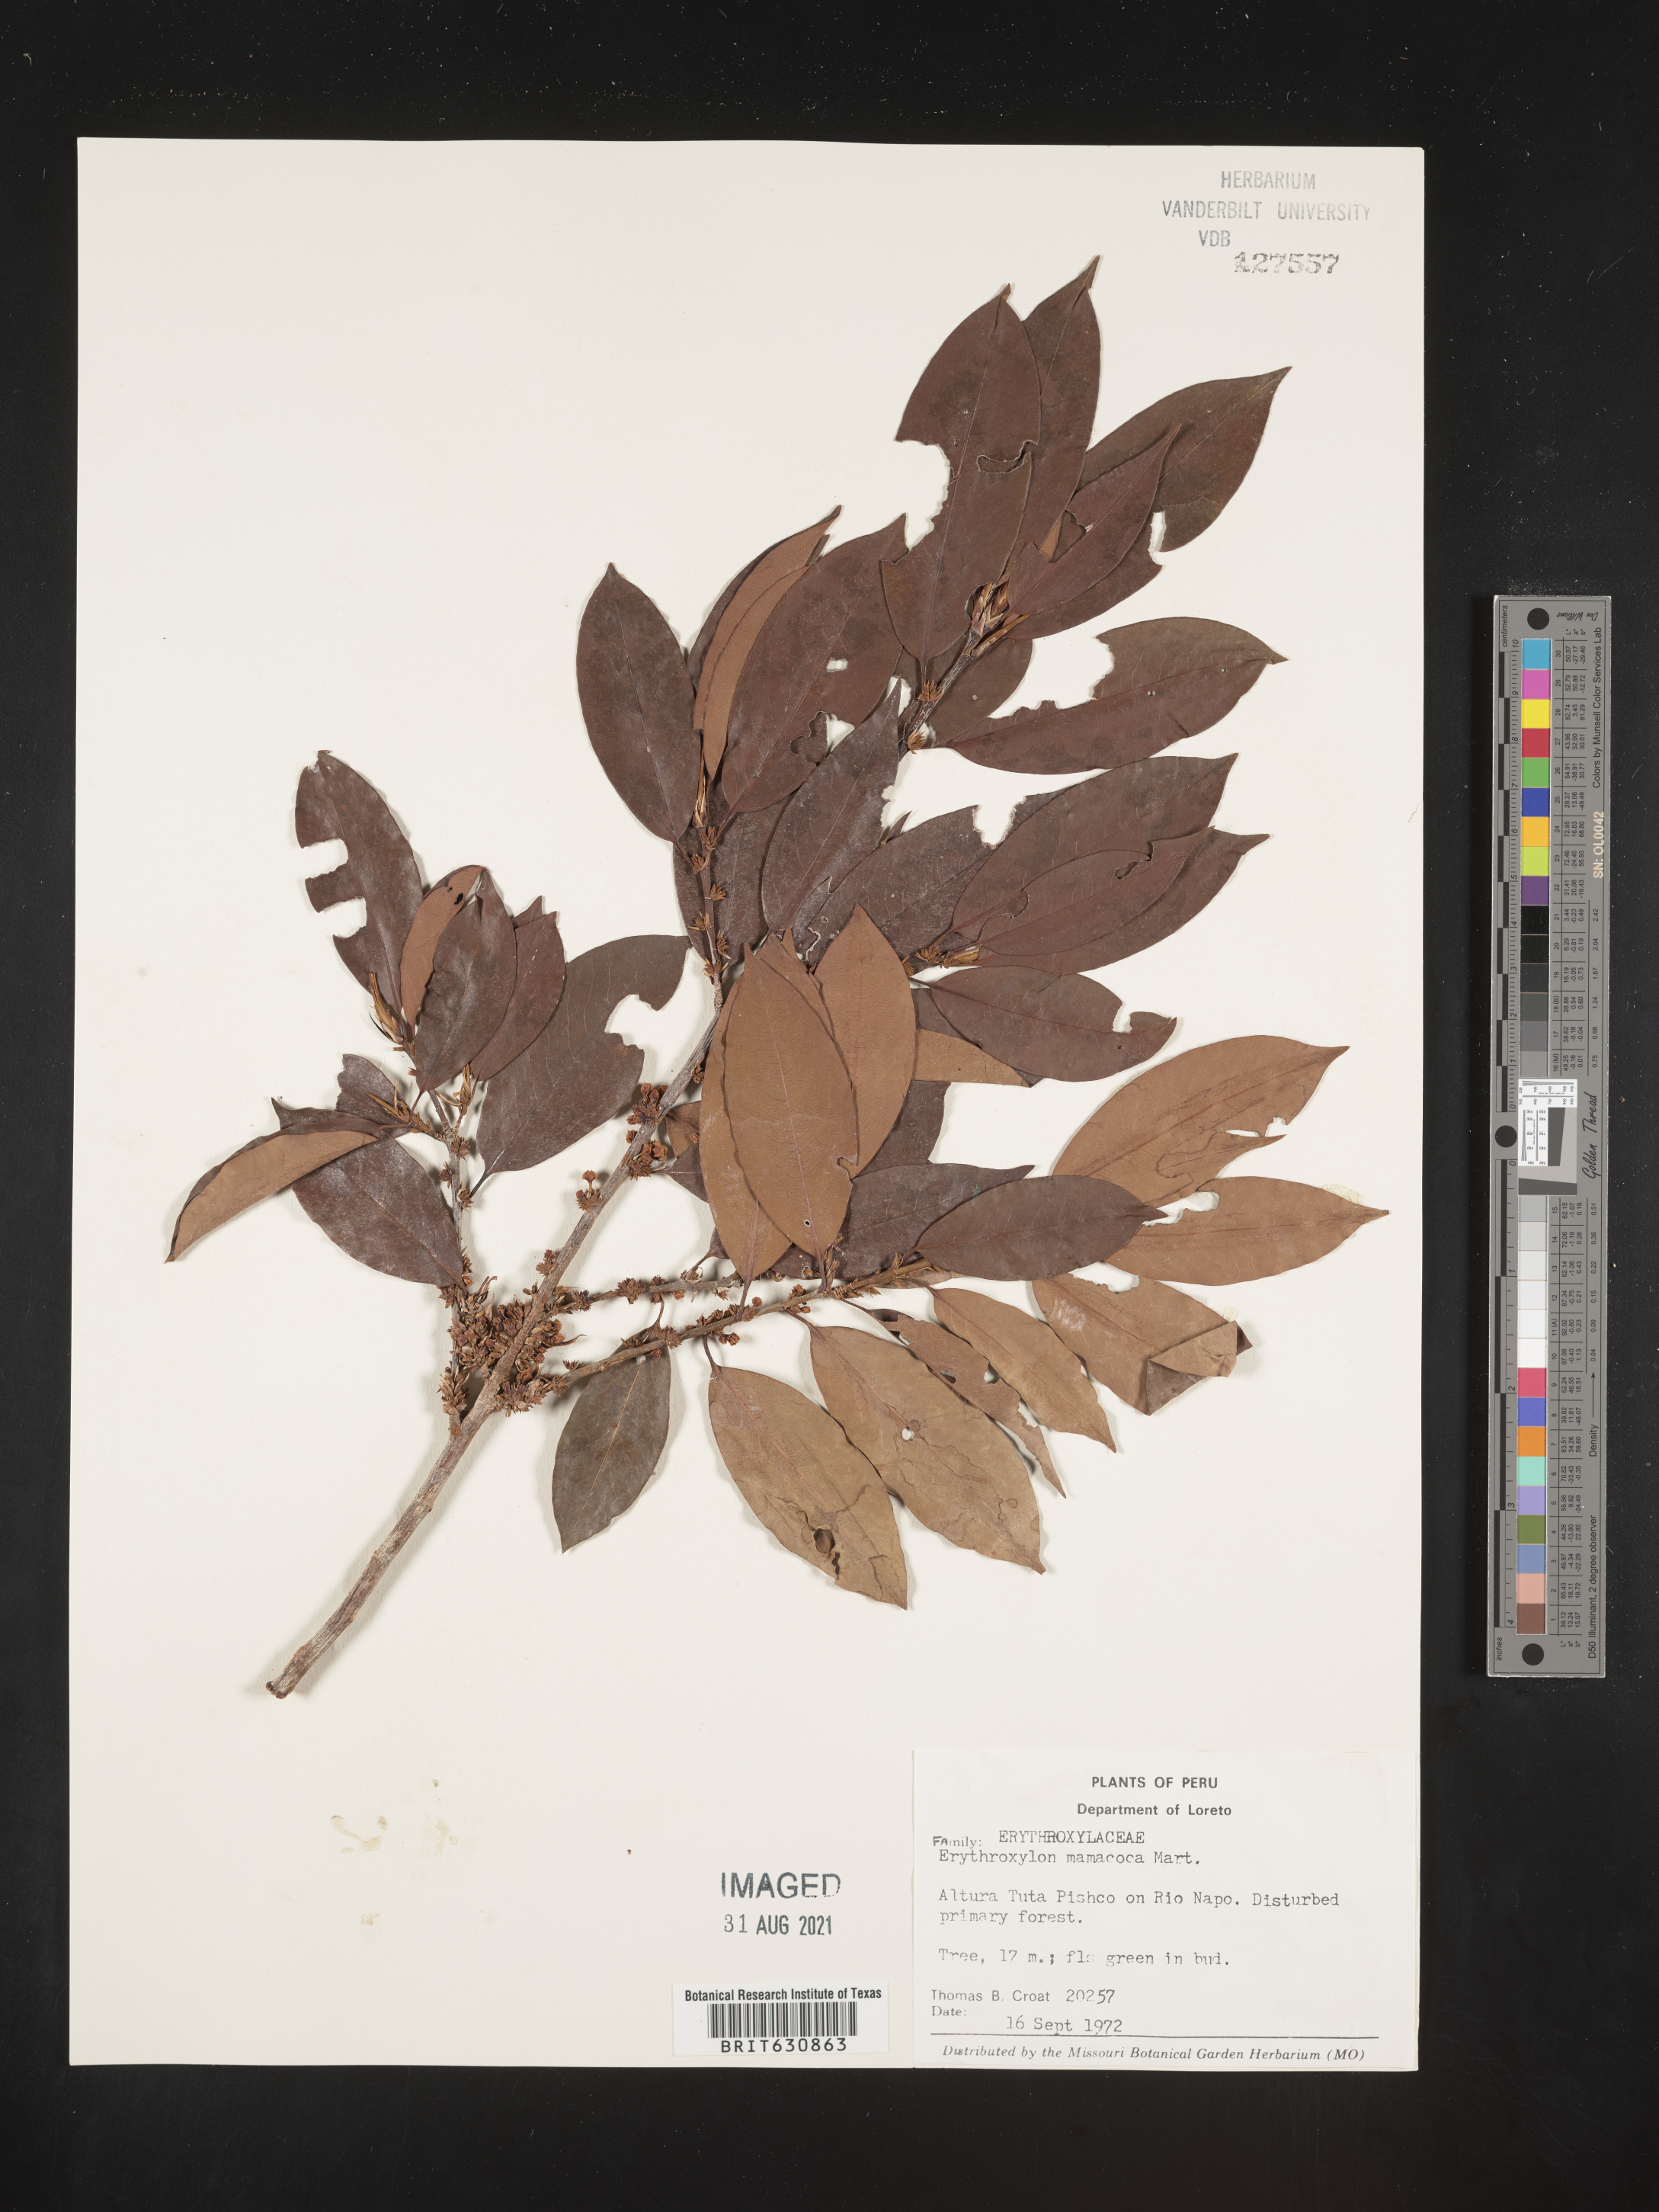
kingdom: Plantae
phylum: Tracheophyta
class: Magnoliopsida
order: Malpighiales
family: Erythroxylaceae
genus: Erythroxylum
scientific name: Erythroxylum
